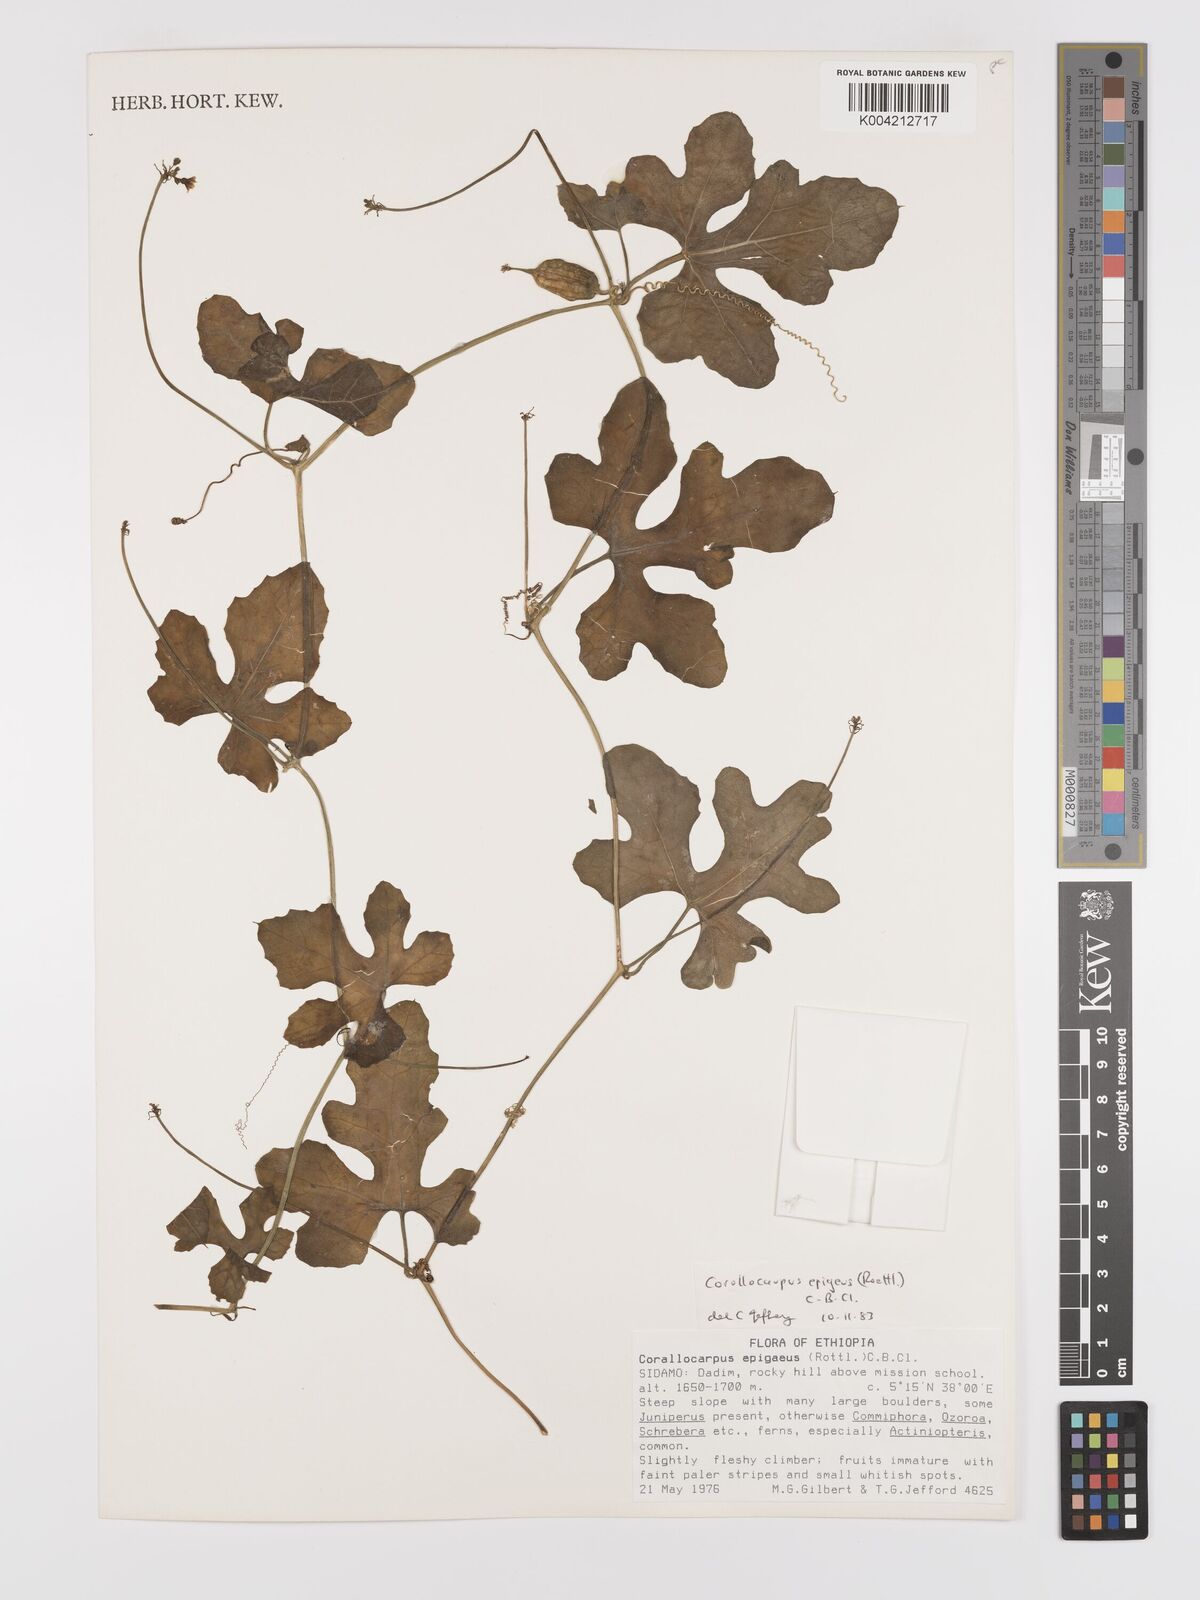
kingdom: Plantae
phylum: Tracheophyta
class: Magnoliopsida
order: Cucurbitales
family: Cucurbitaceae
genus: Corallocarpus
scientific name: Corallocarpus epigaeus
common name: Indian bryonia
